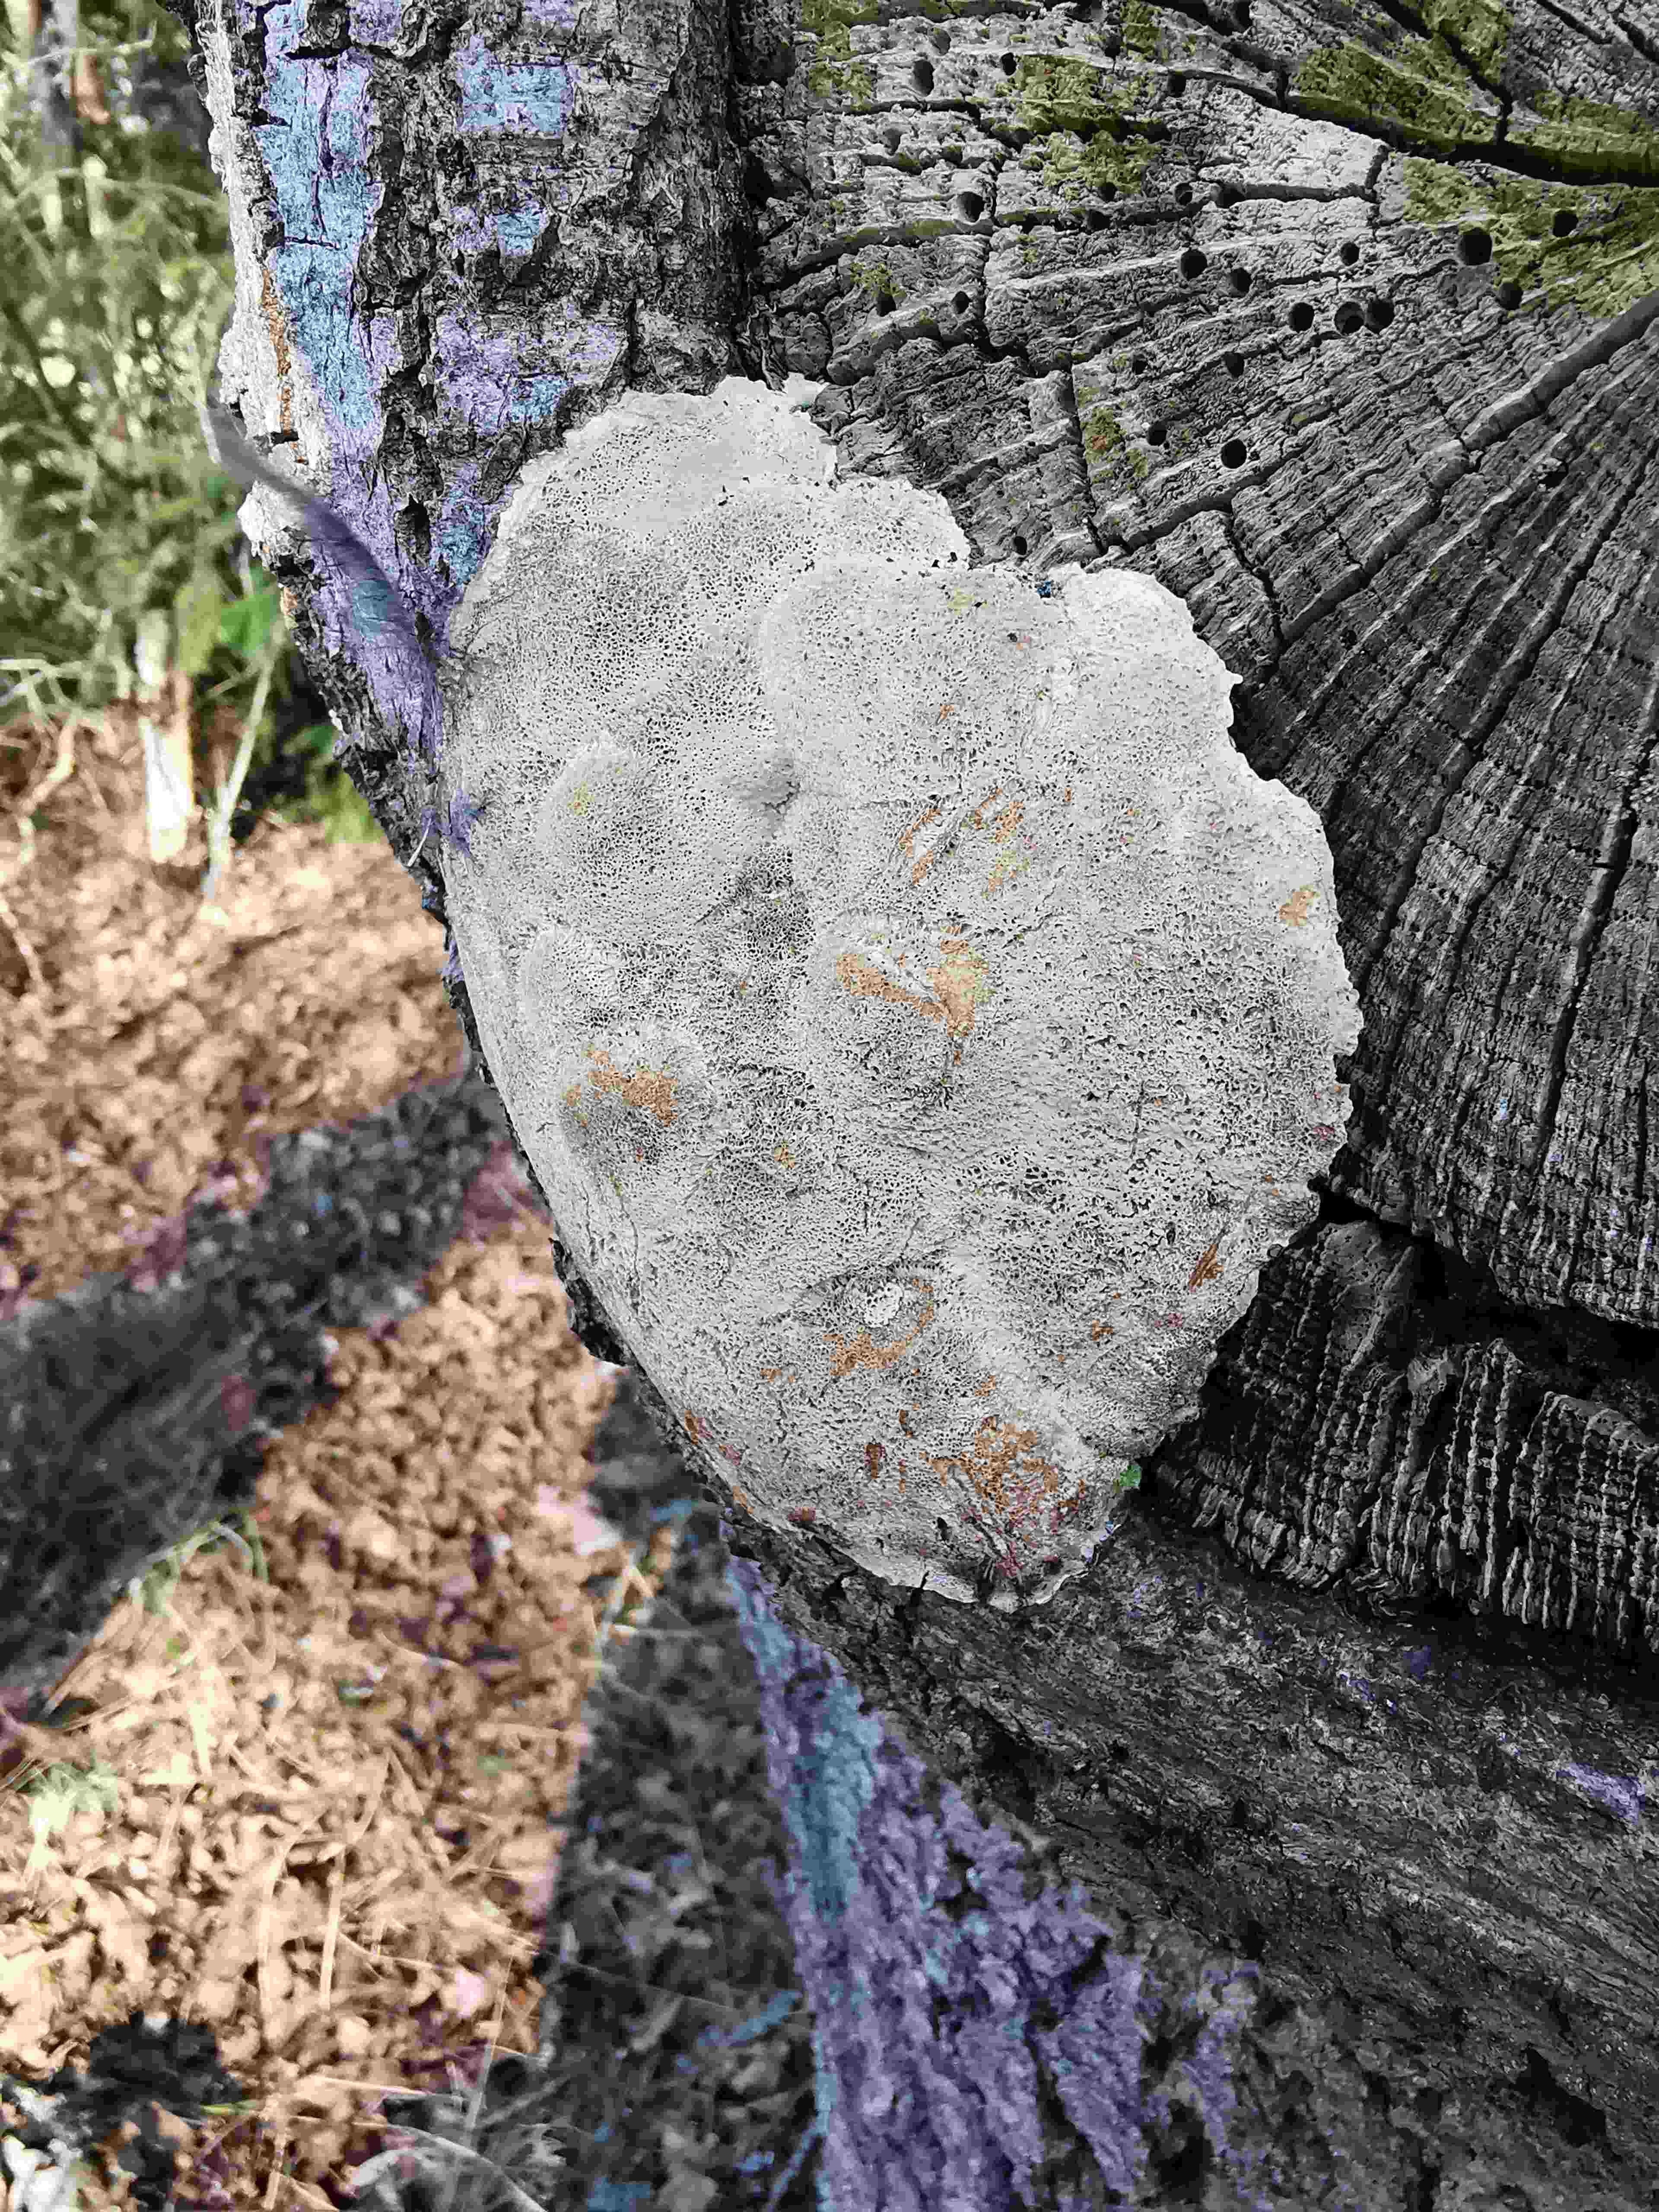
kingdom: Fungi
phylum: Basidiomycota
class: Agaricomycetes
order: Polyporales
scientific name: Polyporales
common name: poresvampordenen
